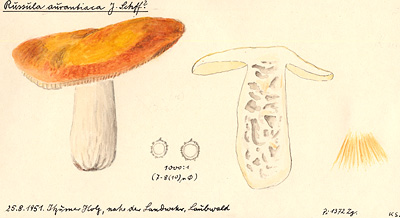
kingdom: Fungi
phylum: Basidiomycota
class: Agaricomycetes
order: Russulales
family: Russulaceae
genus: Russula
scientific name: Russula aurantiaca
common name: Orange brittlegill
